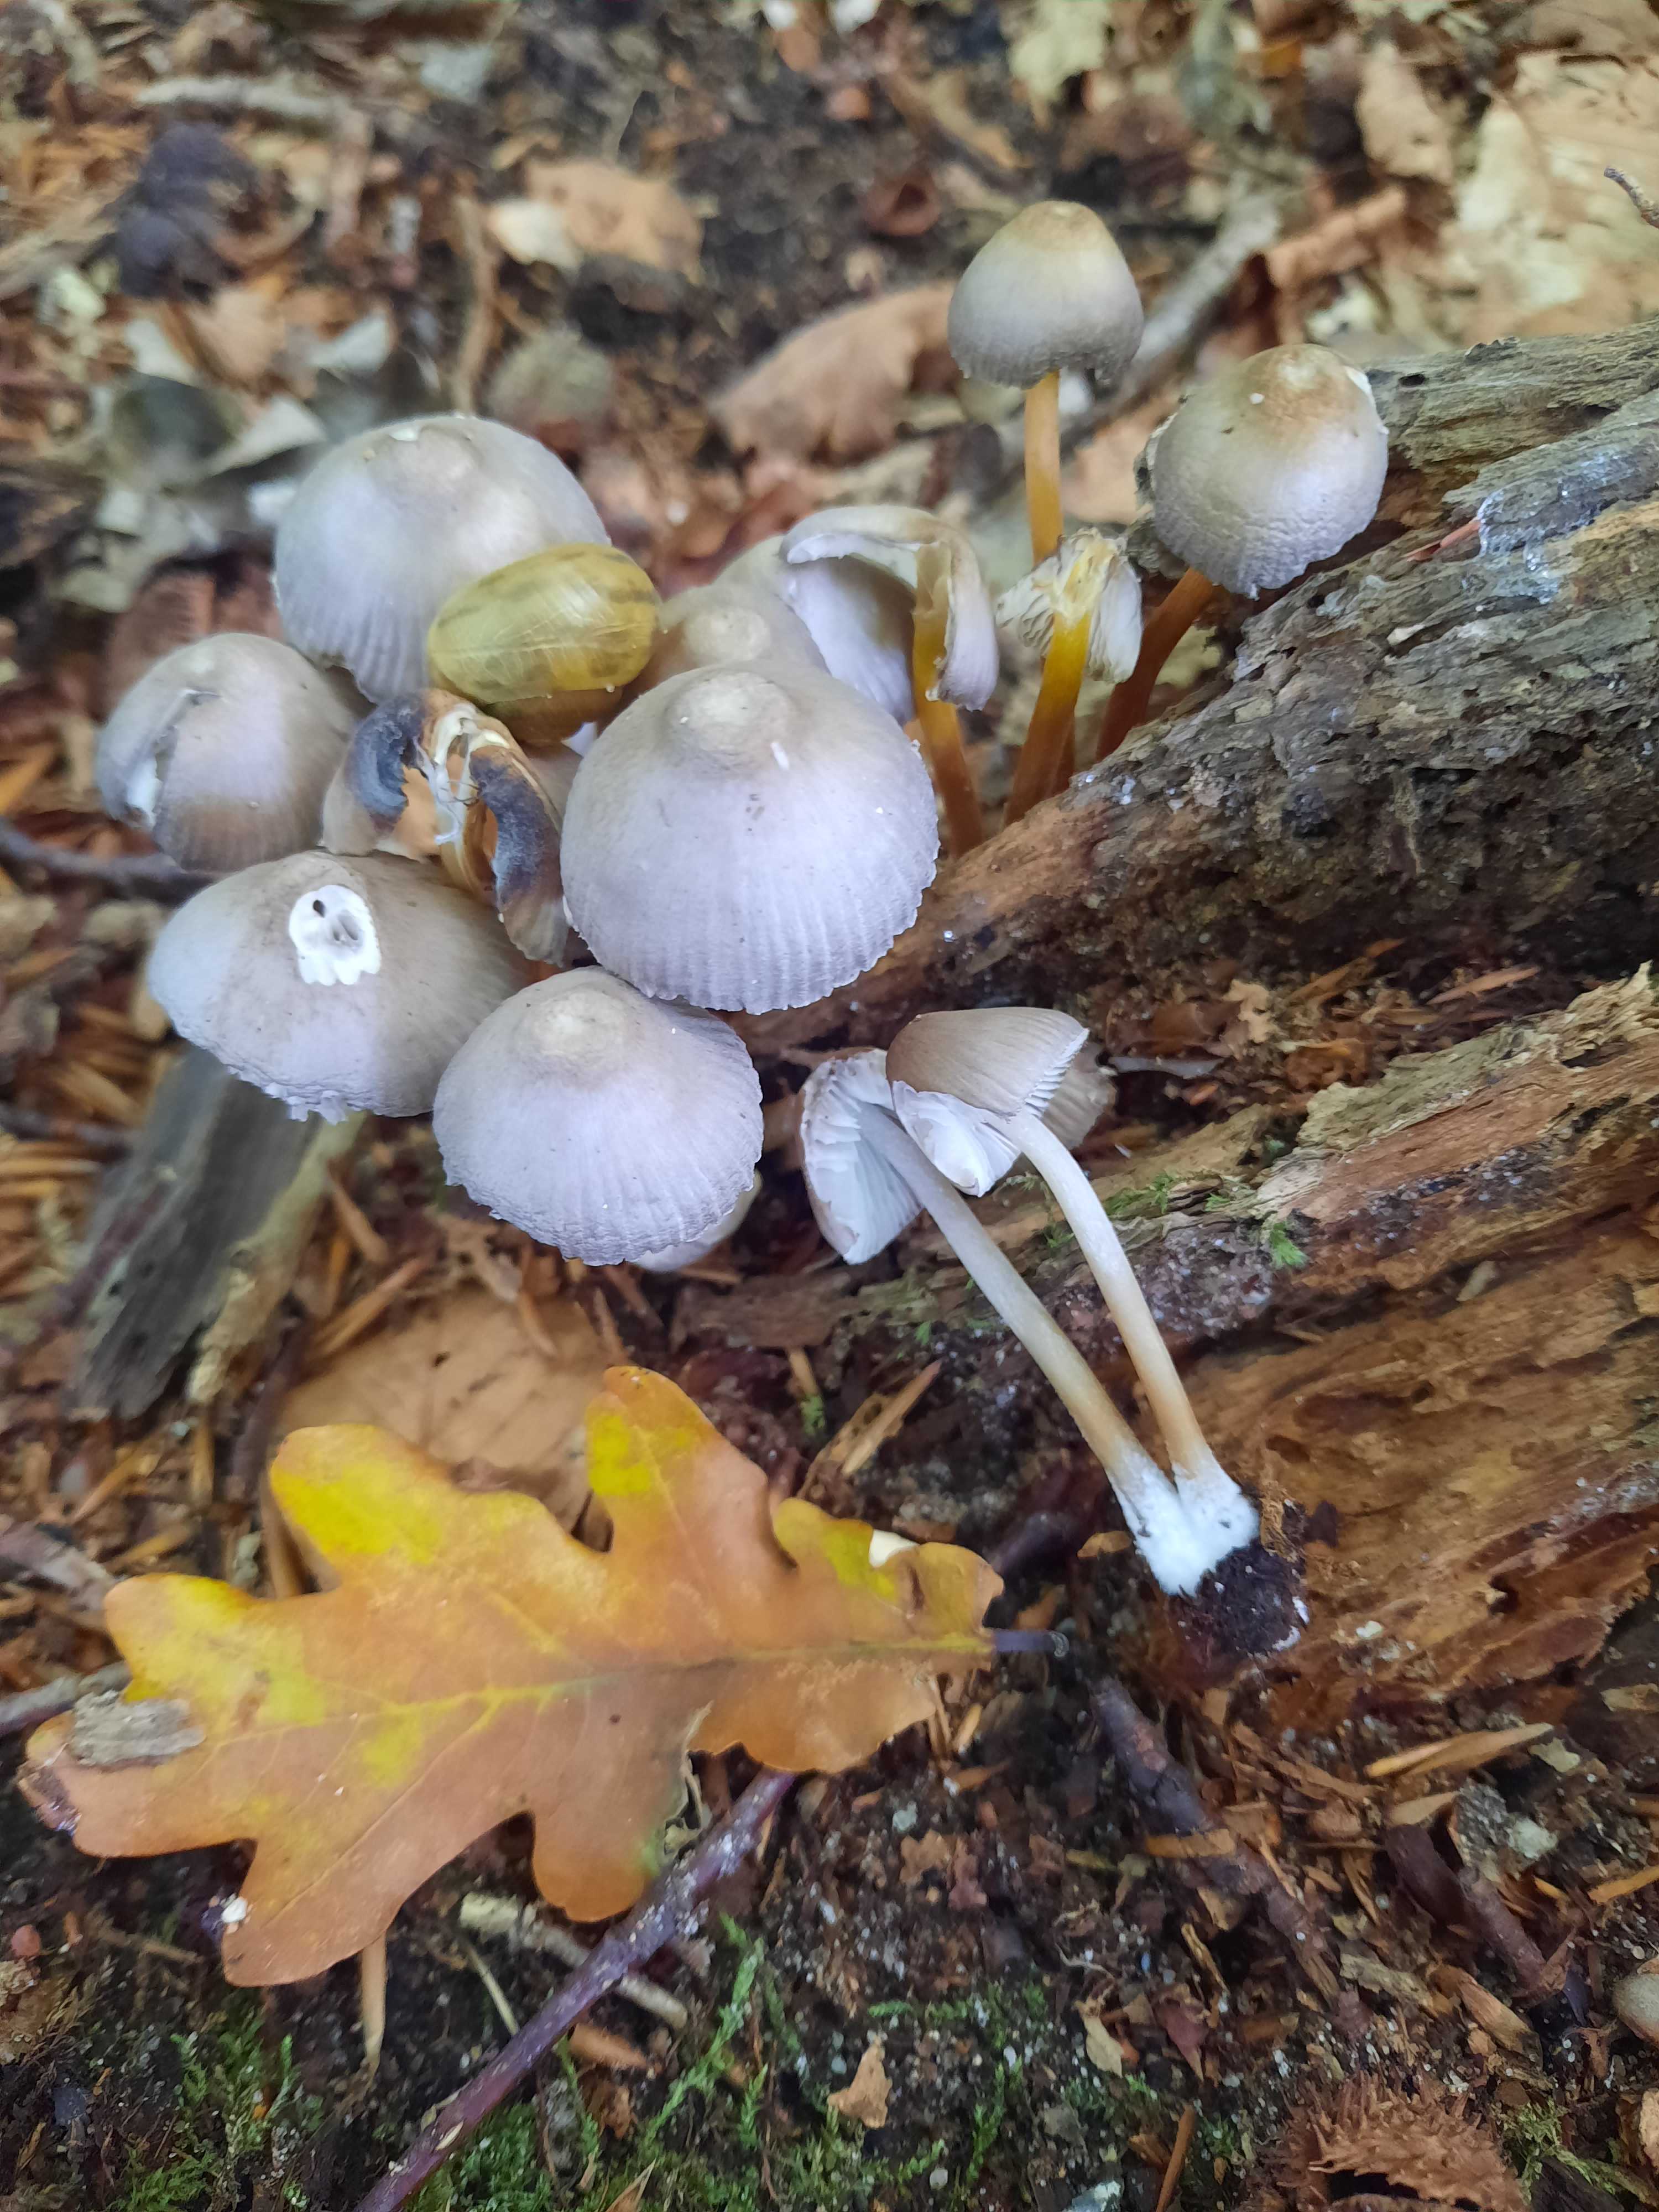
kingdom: Fungi
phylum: Basidiomycota
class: Agaricomycetes
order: Agaricales
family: Mycenaceae
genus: Mycena
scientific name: Mycena inclinata
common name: nikkende huesvamp
